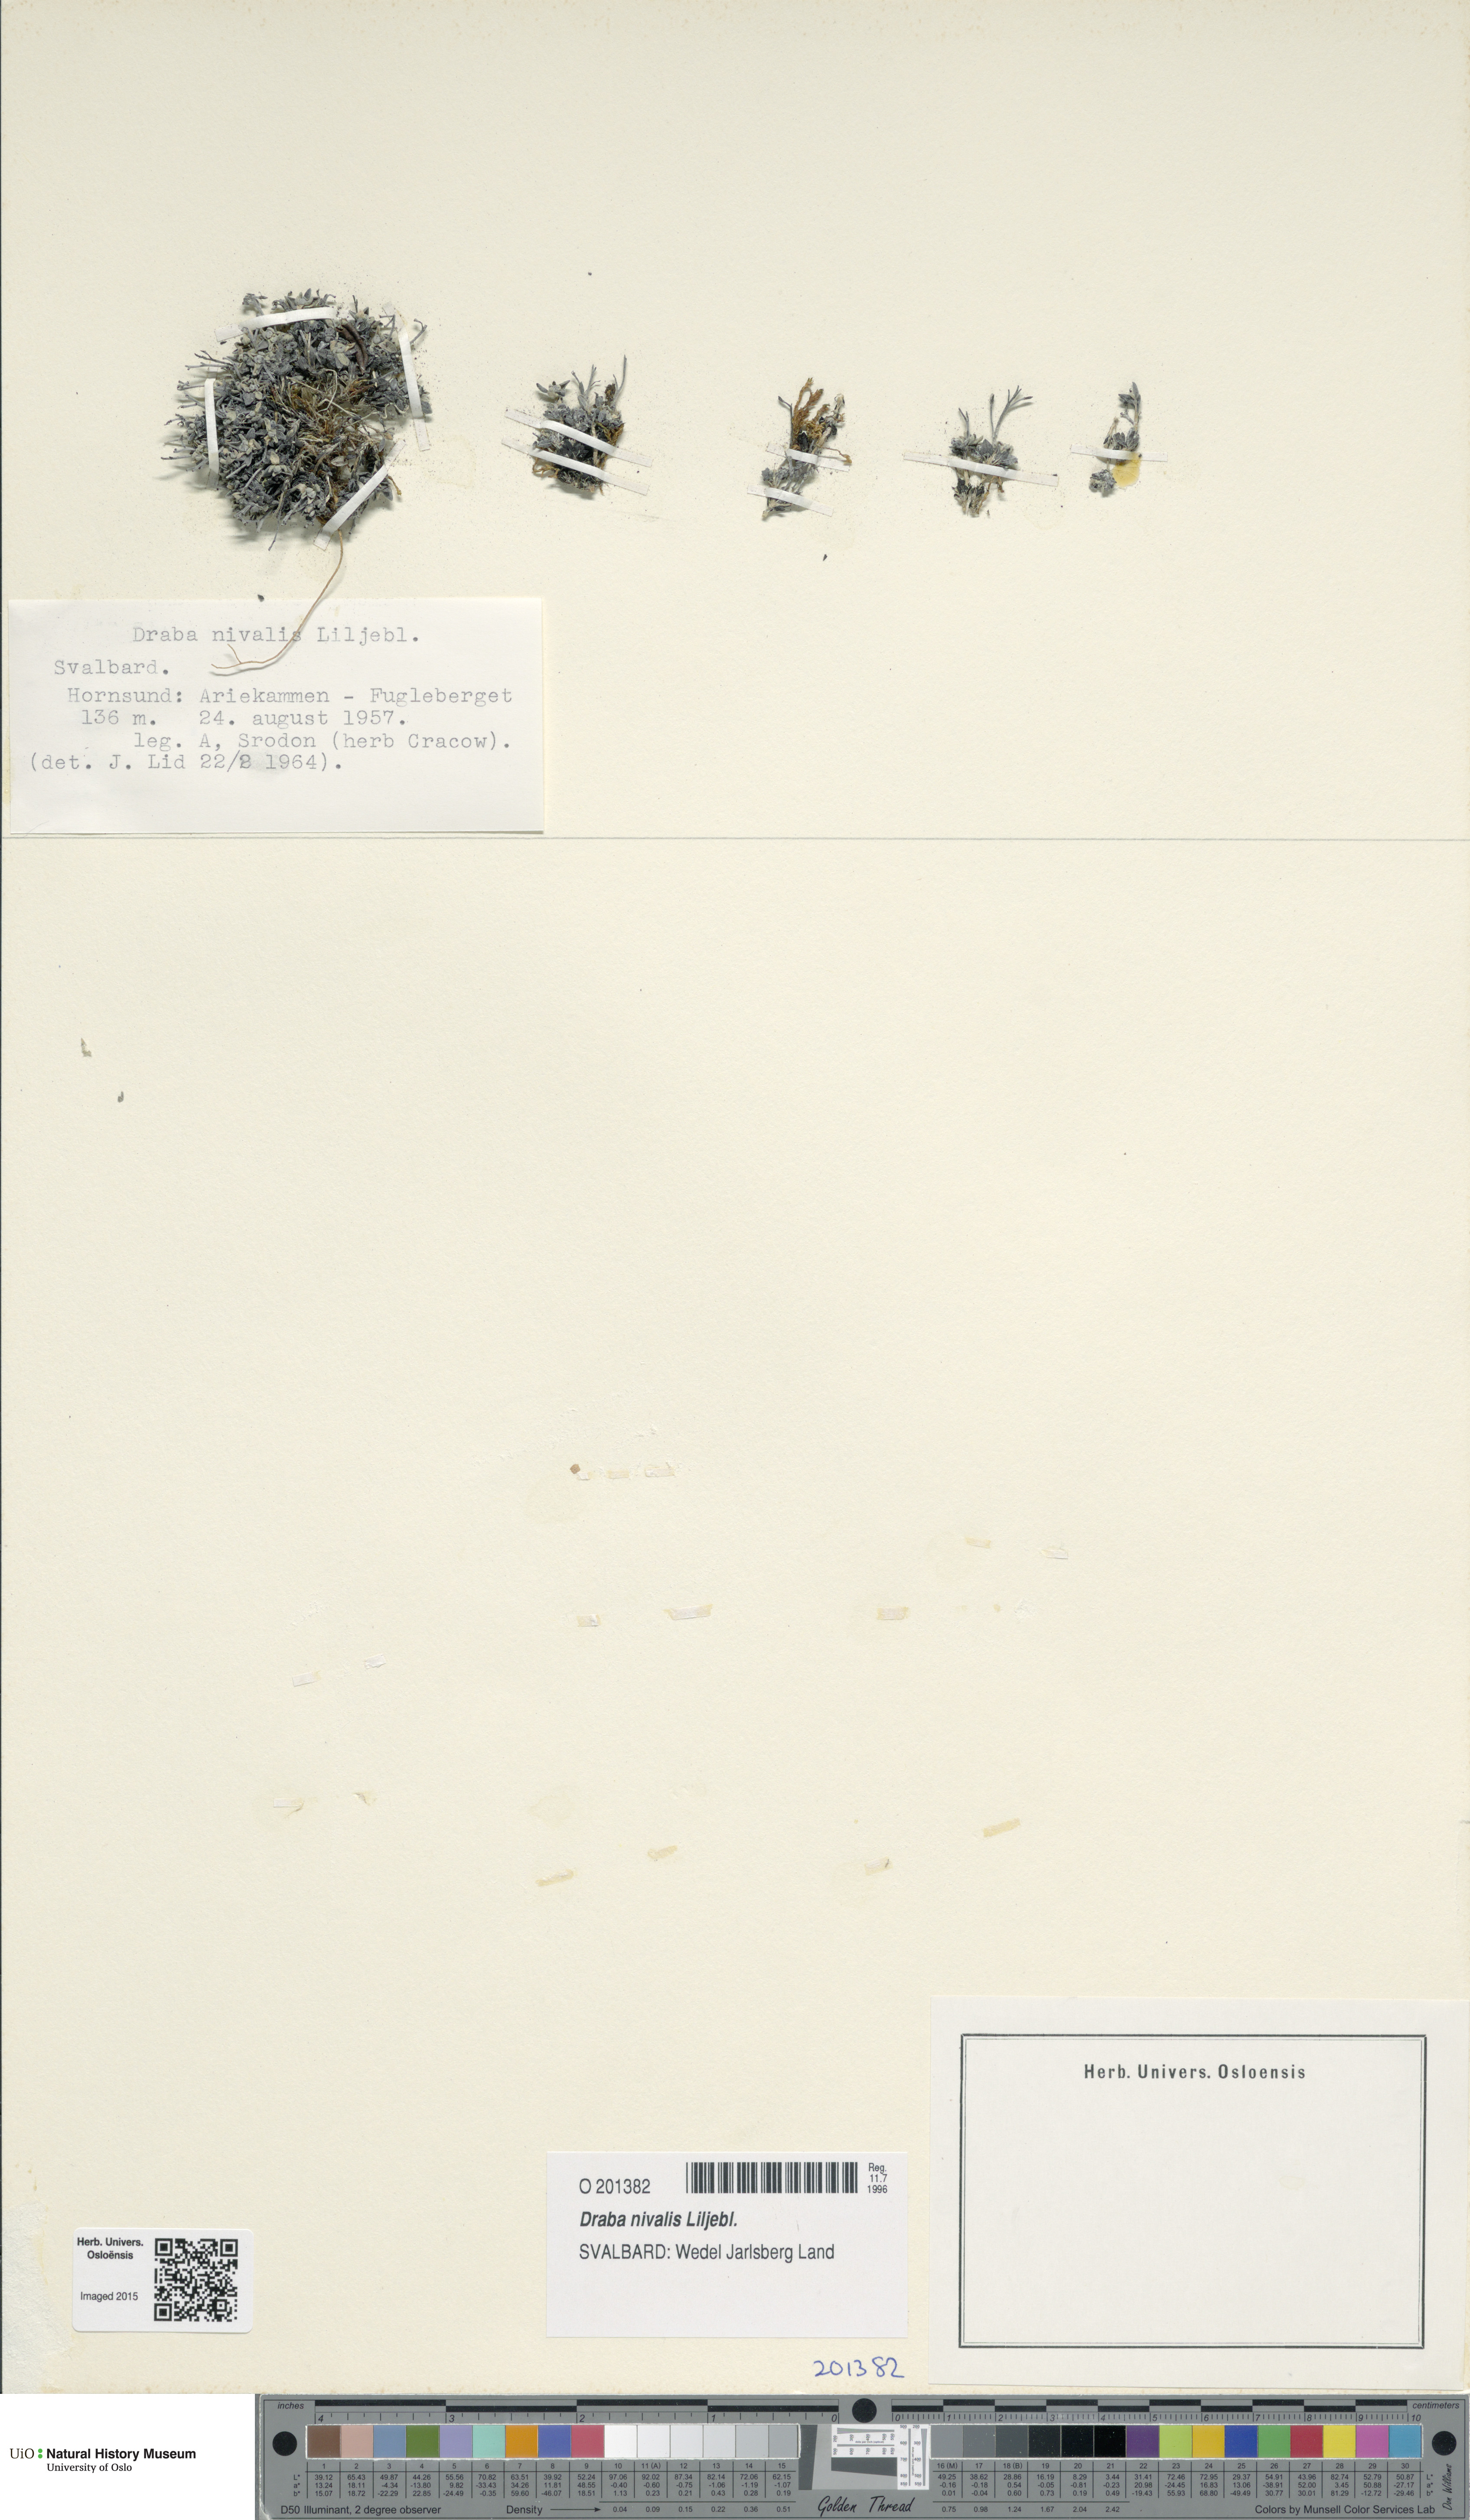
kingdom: Plantae
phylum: Tracheophyta
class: Magnoliopsida
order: Brassicales
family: Brassicaceae
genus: Draba
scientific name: Draba nivalis
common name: Snow draba
